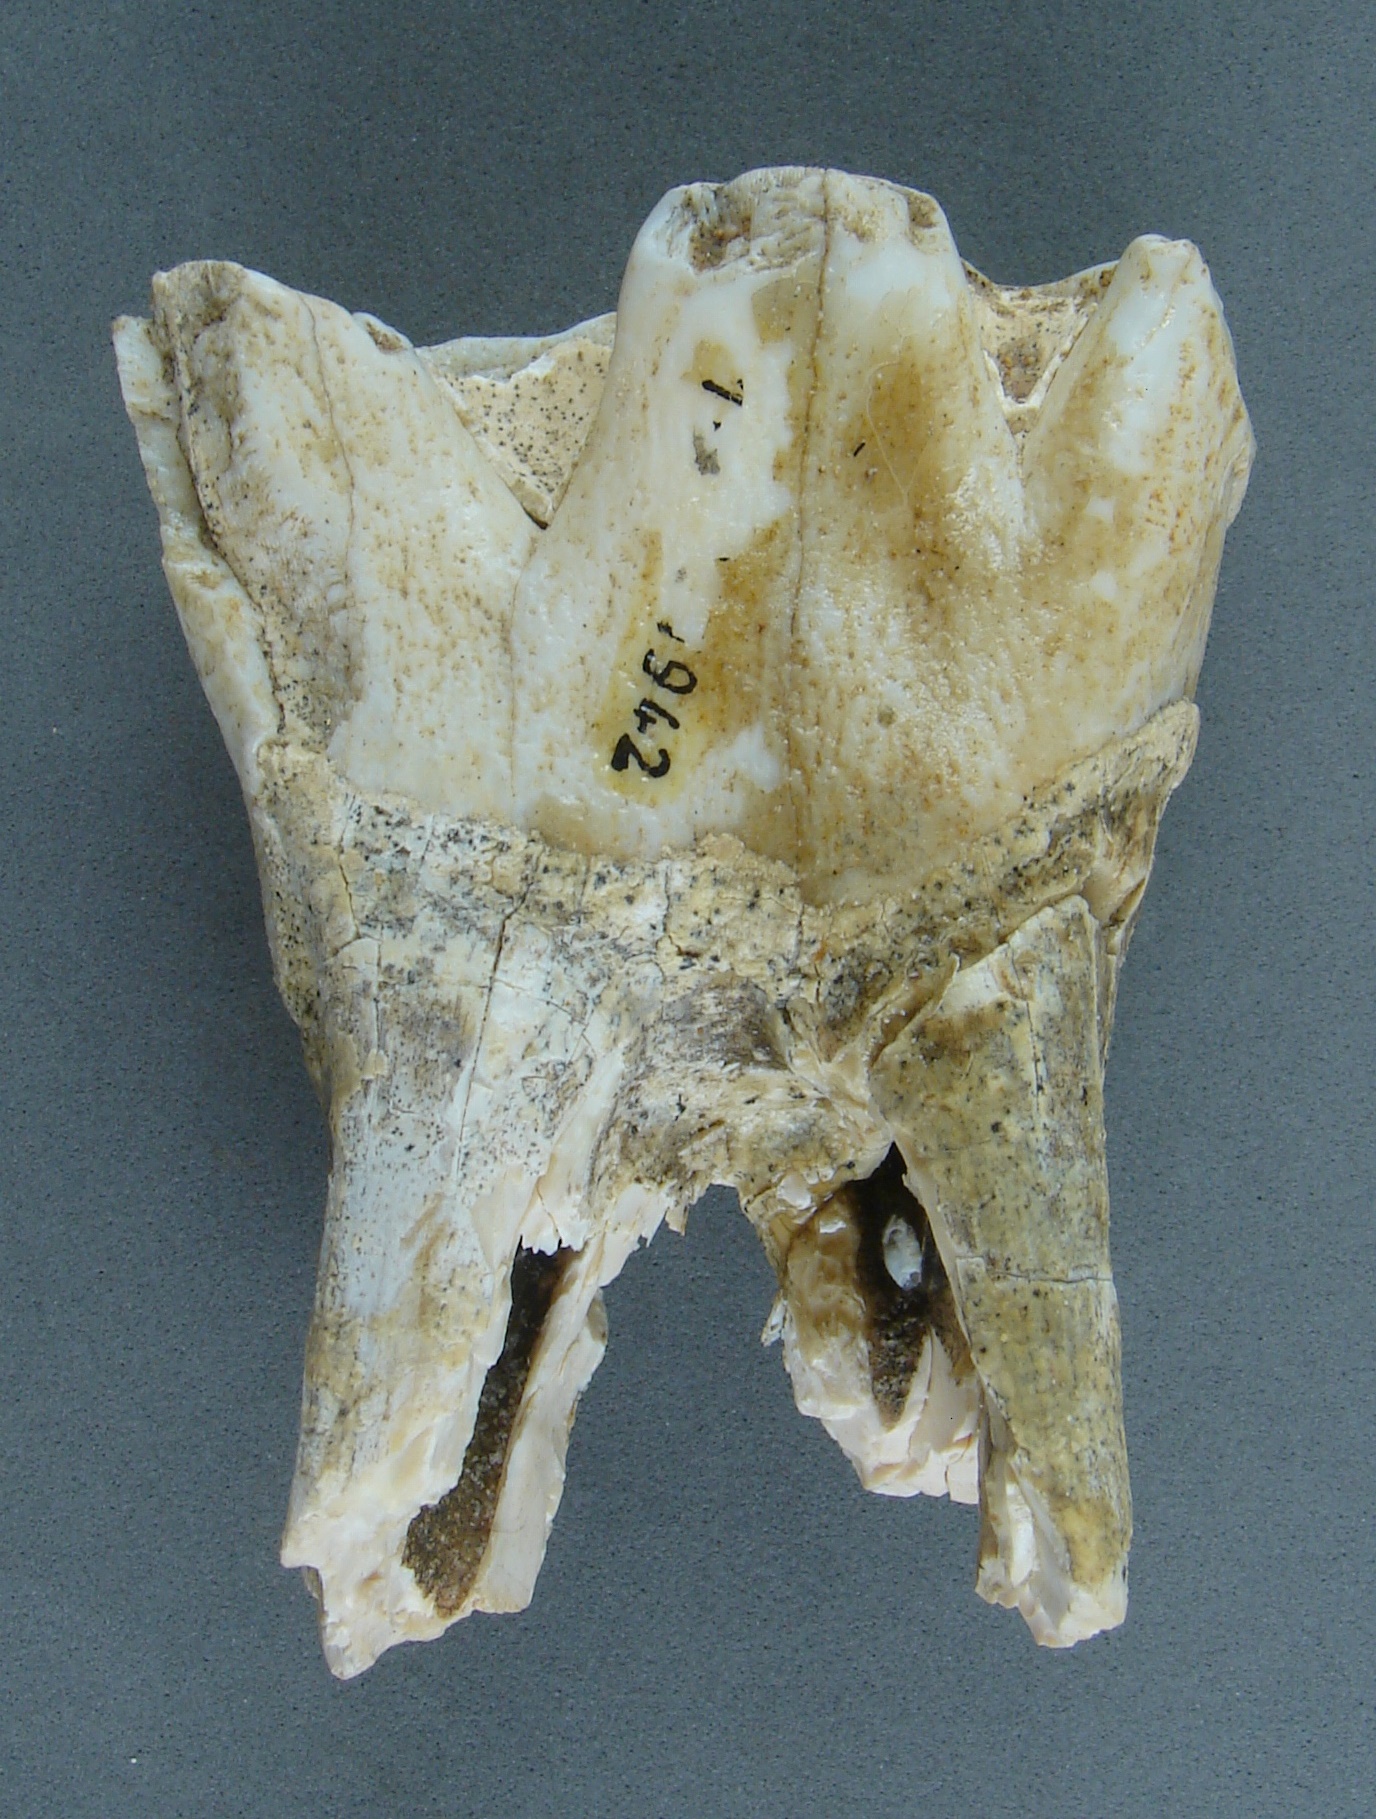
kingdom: Animalia
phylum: Chordata
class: Mammalia
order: Perissodactyla
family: Rhinocerotidae
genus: Rhinoceros
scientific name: Rhinoceros
